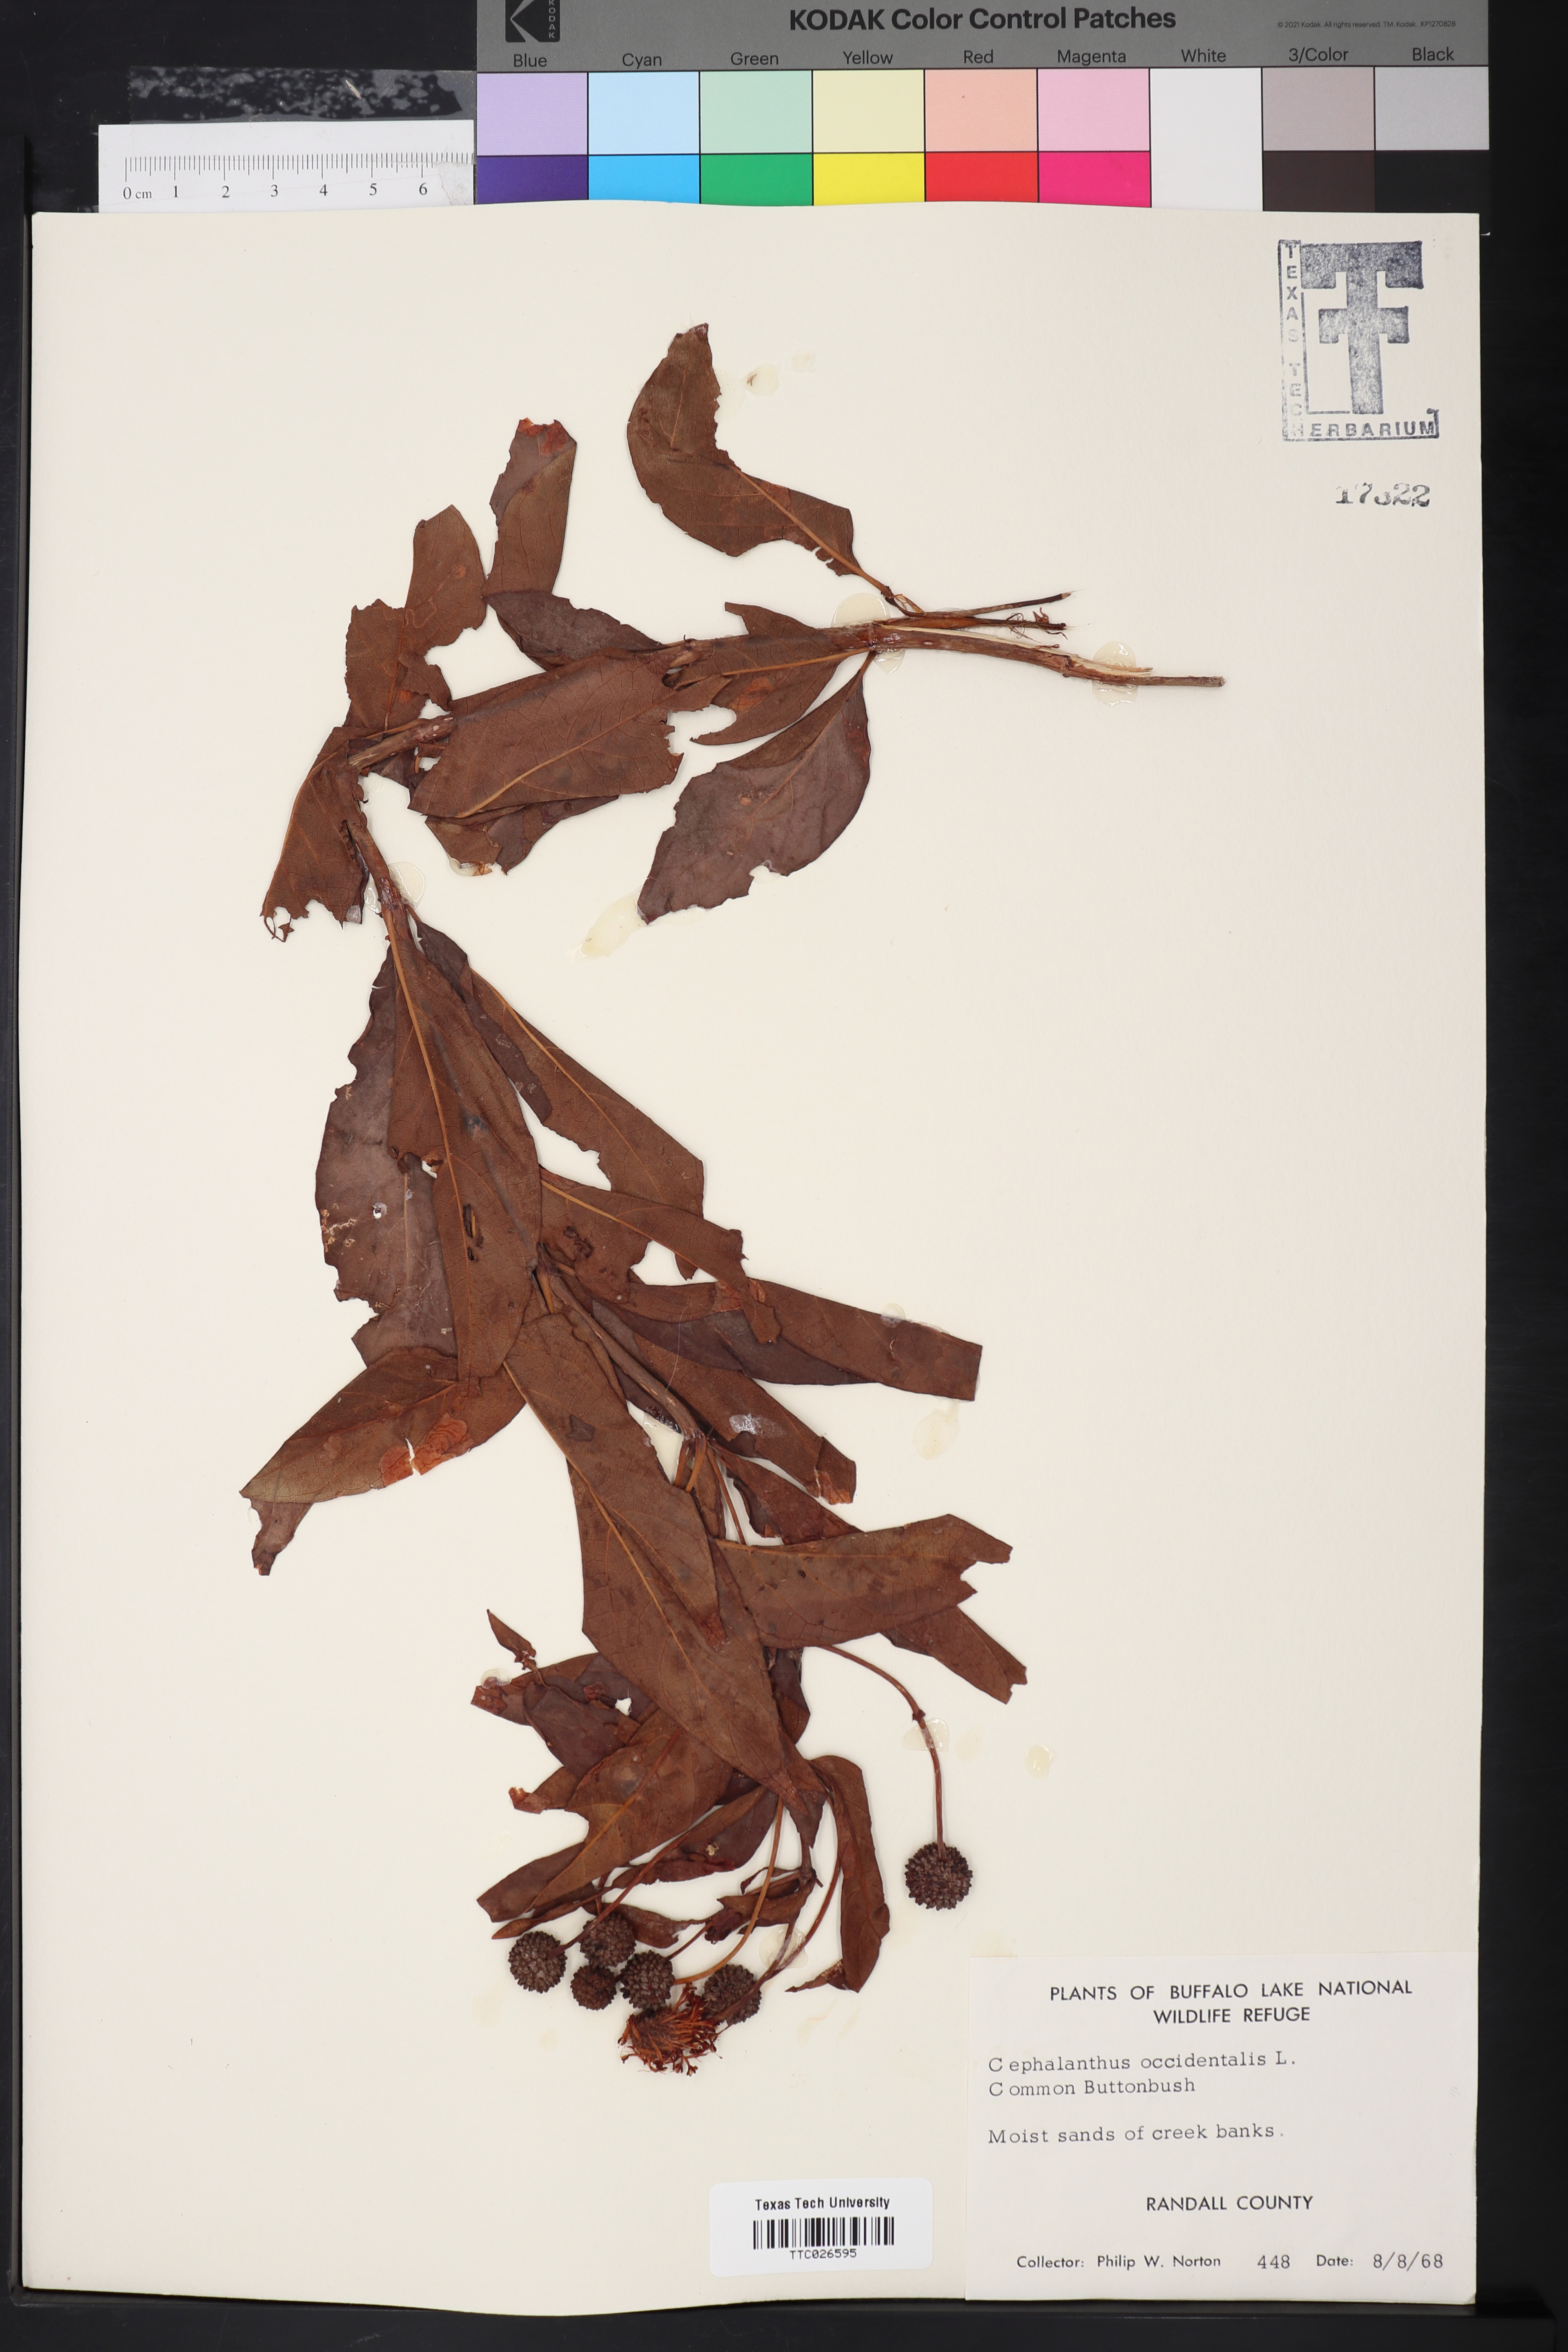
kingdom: Plantae
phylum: Tracheophyta
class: Magnoliopsida
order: Gentianales
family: Rubiaceae
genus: Cephalanthus
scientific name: Cephalanthus occidentalis
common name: Button-willow
